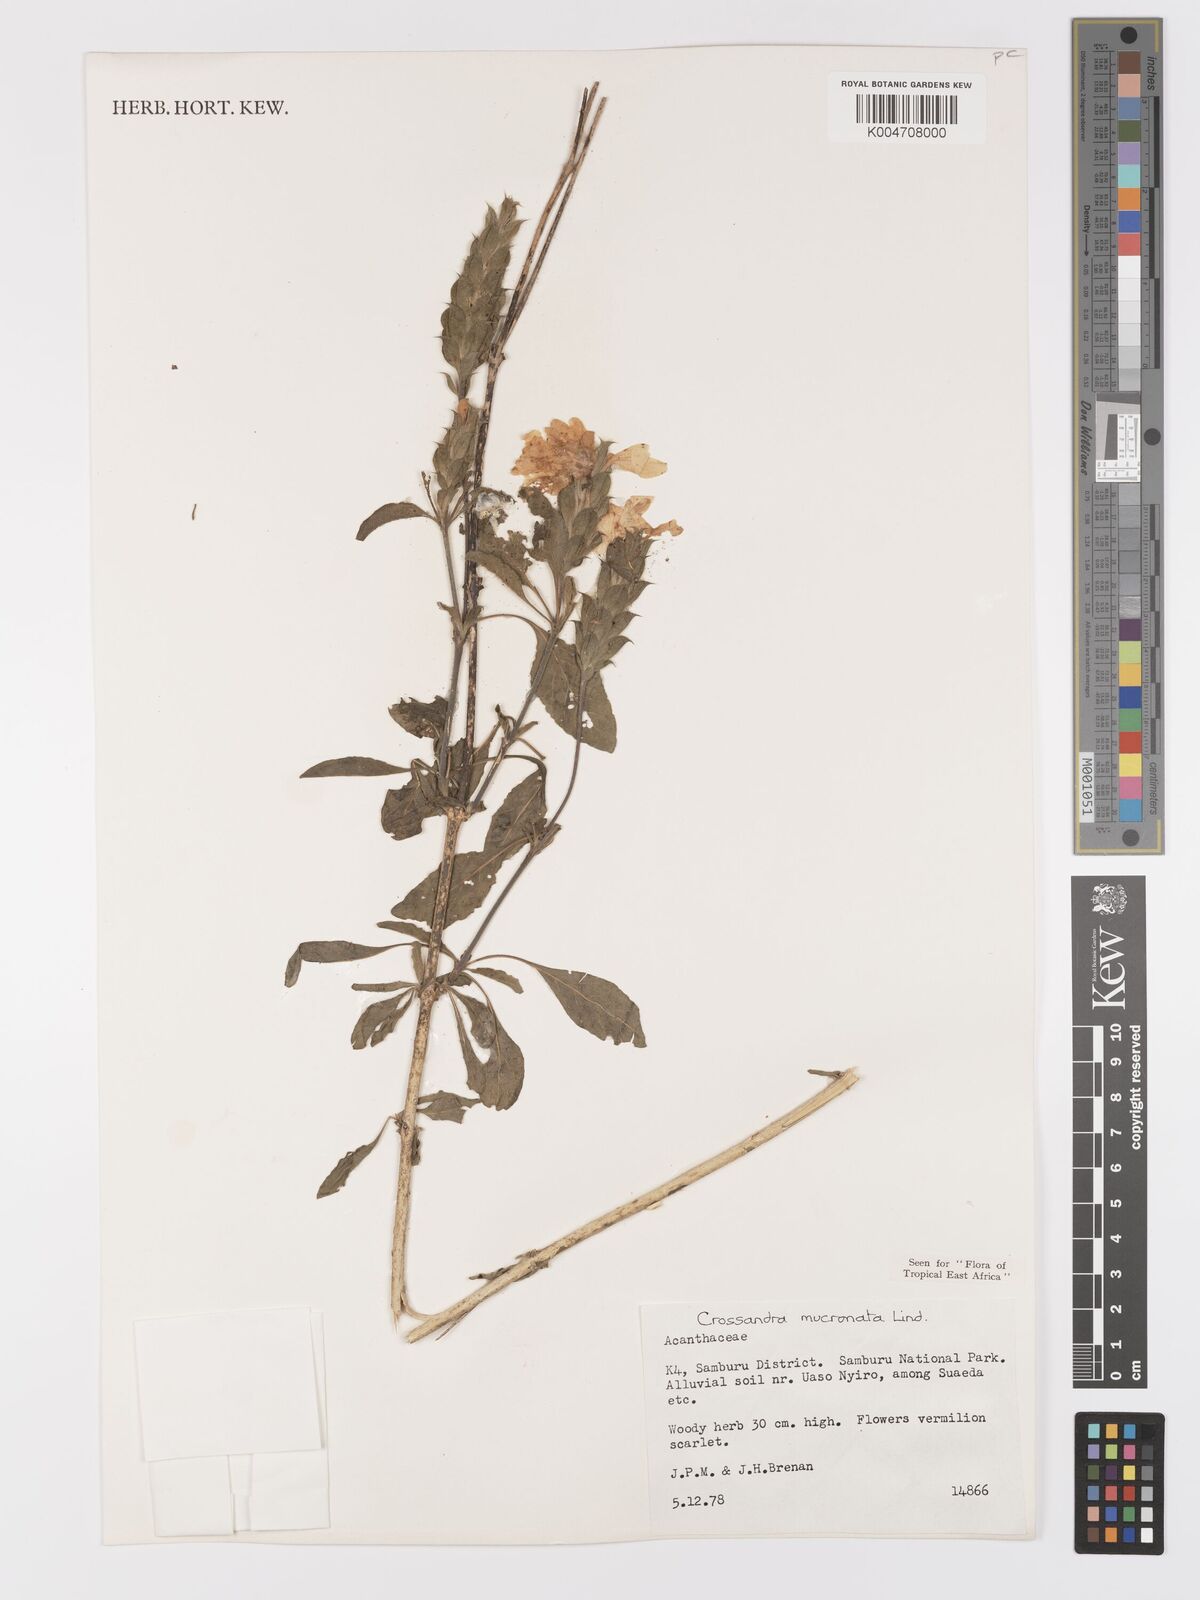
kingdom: Plantae
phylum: Tracheophyta
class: Magnoliopsida
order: Lamiales
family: Acanthaceae
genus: Crossandra
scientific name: Crossandra mucronata
